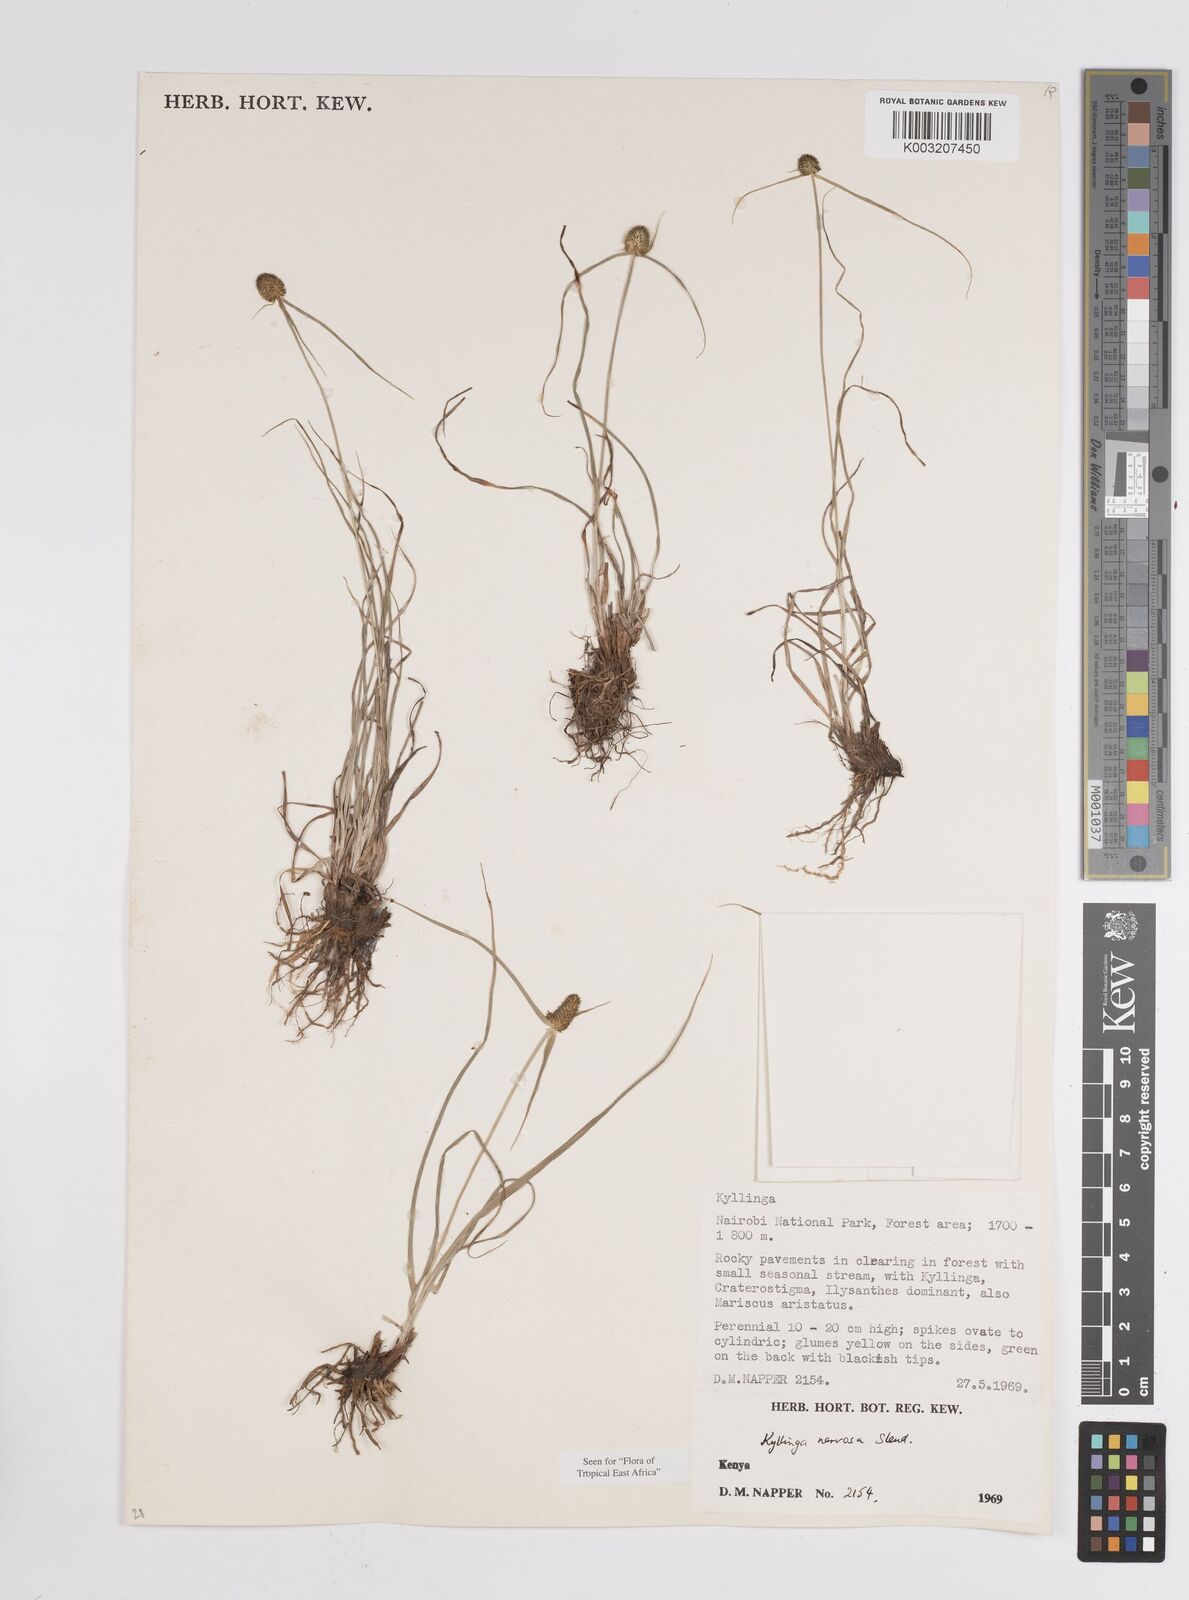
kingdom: Plantae
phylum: Tracheophyta
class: Liliopsida
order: Poales
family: Cyperaceae
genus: Cyperus
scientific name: Cyperus
